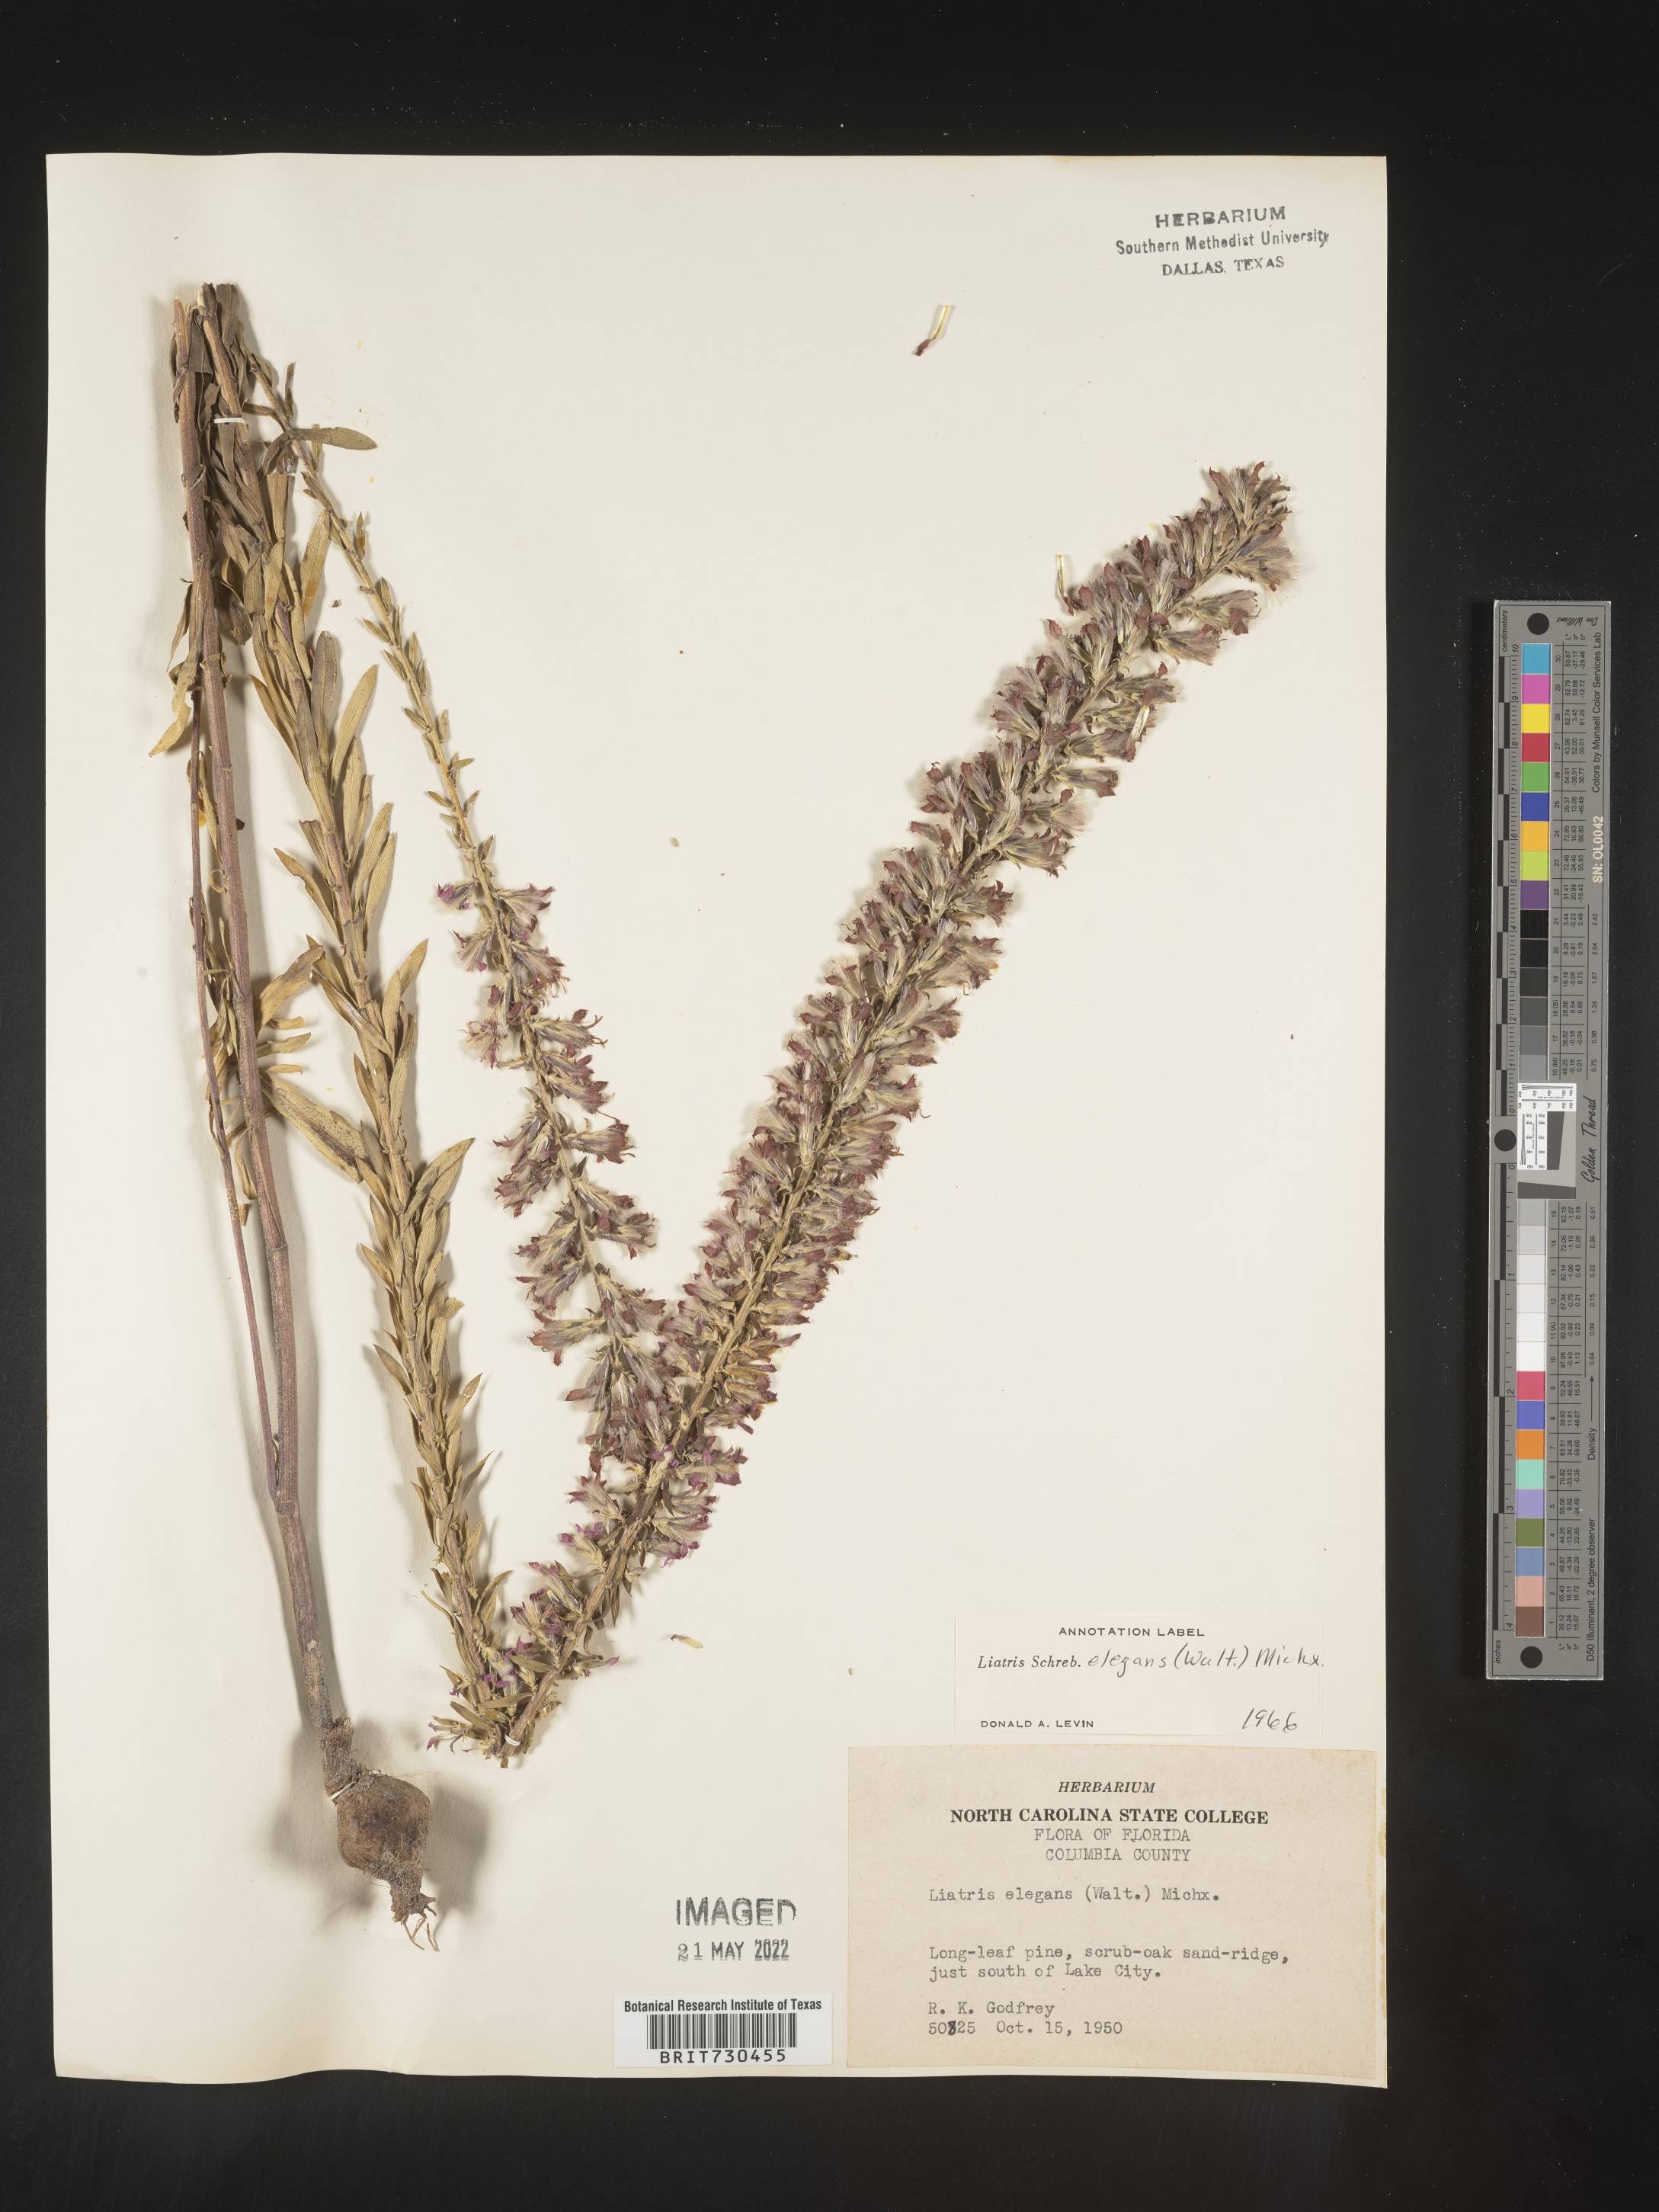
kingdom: Plantae
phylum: Tracheophyta
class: Magnoliopsida
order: Asterales
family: Asteraceae
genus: Liatris
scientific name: Liatris elegans
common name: Pinkscale gayfeather
